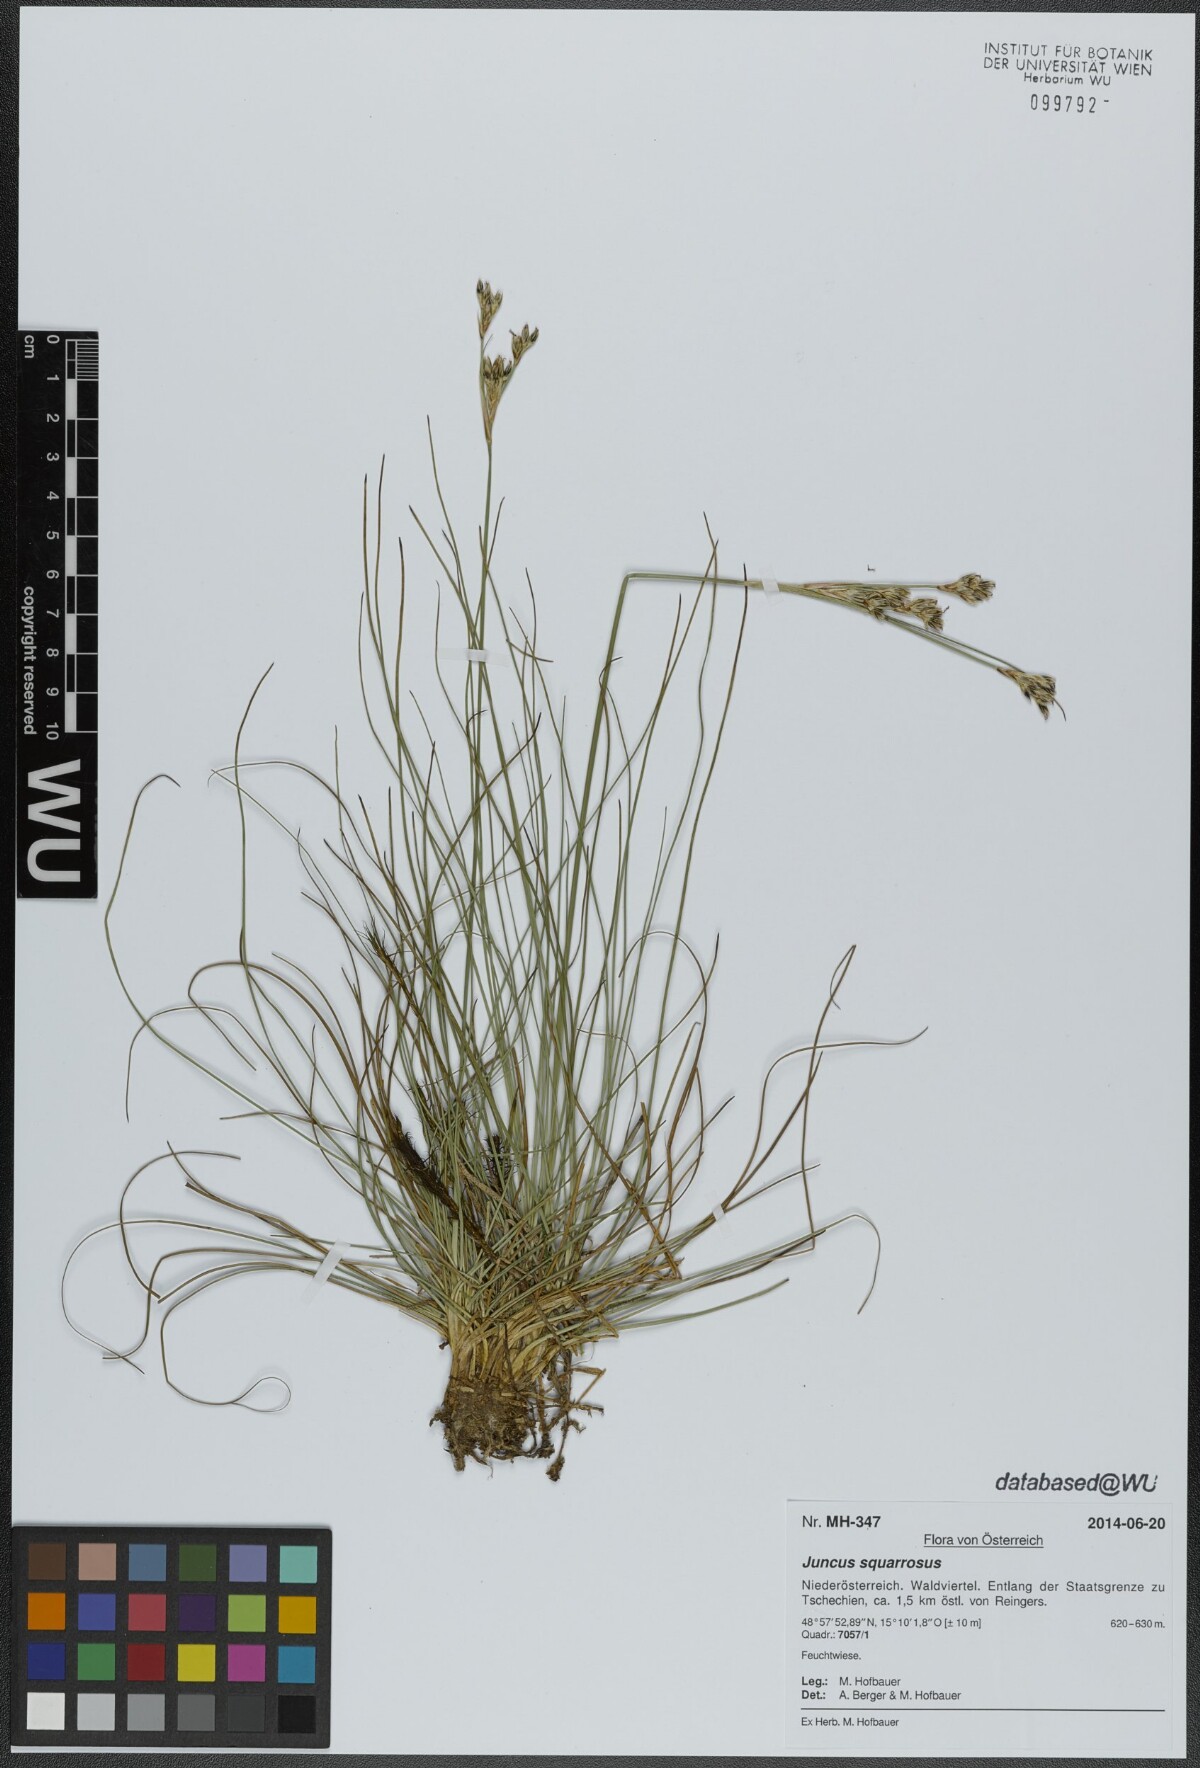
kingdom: Plantae
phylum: Tracheophyta
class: Liliopsida
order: Poales
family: Juncaceae
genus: Juncus
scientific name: Juncus squarrosus
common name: Heath rush
